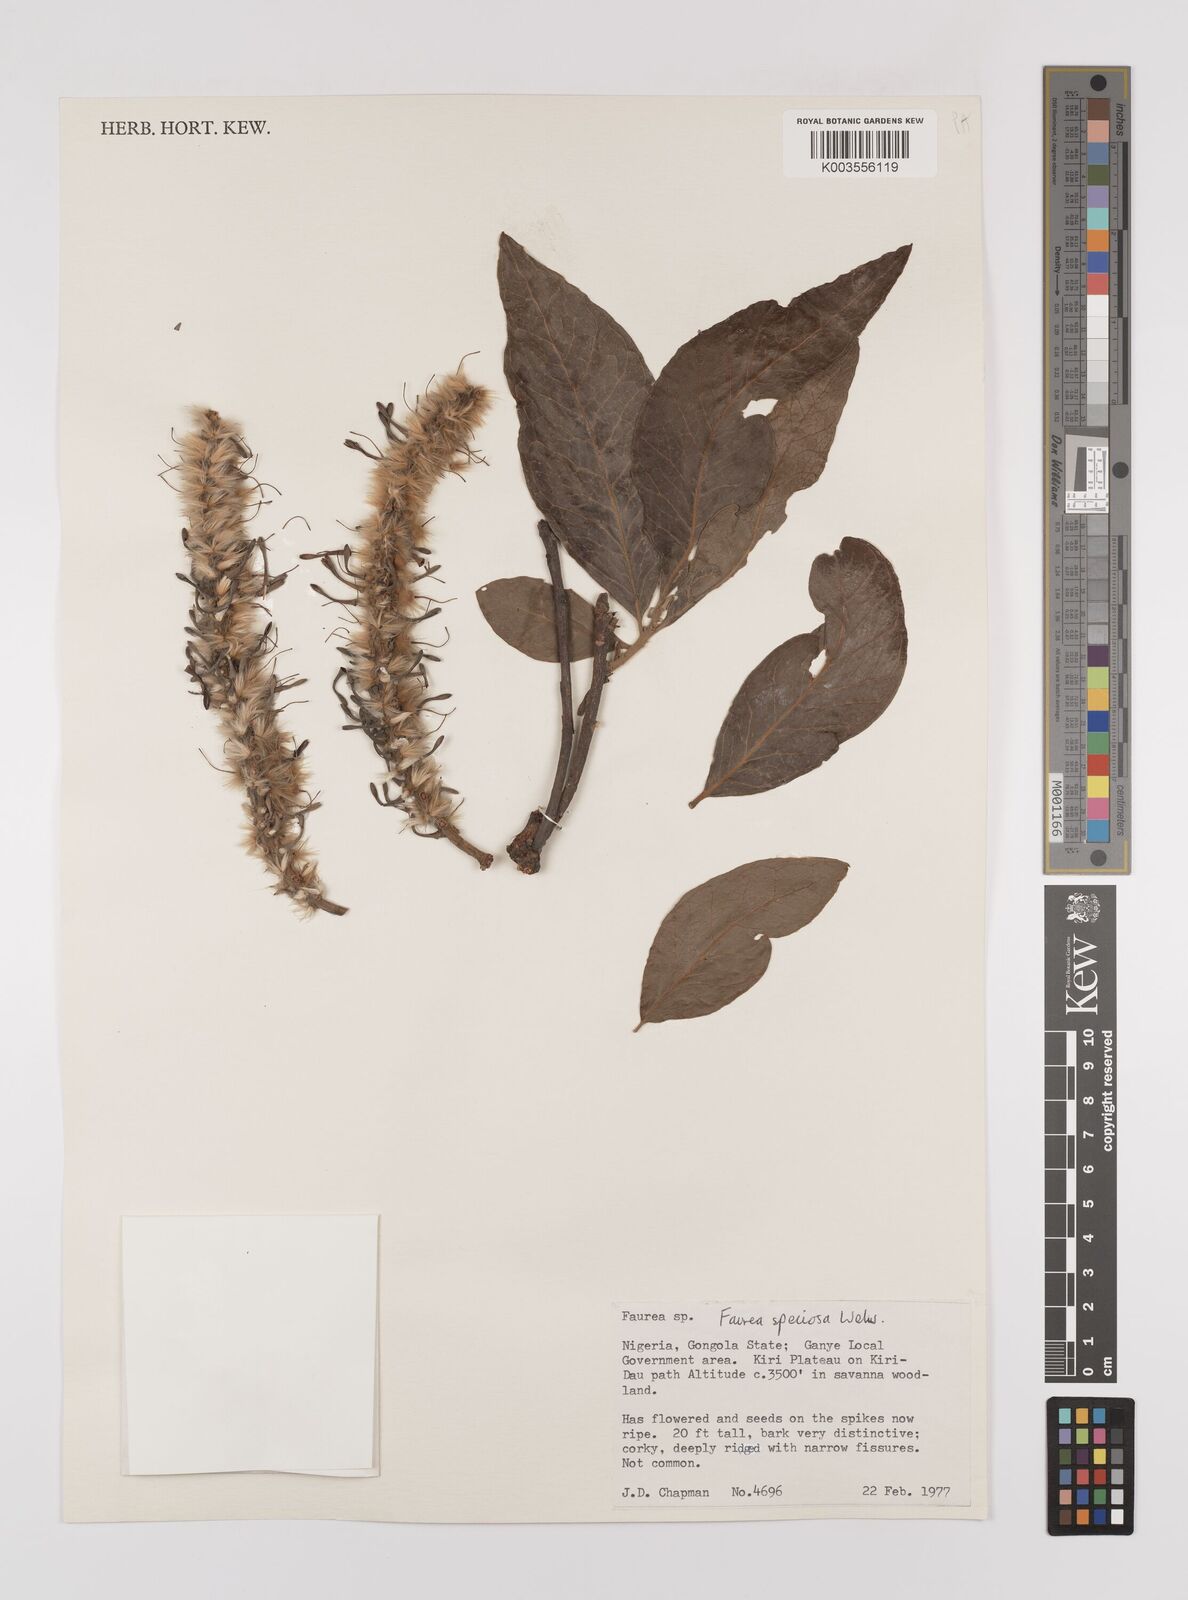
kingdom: Plantae
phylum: Tracheophyta
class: Magnoliopsida
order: Proteales
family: Proteaceae
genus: Faurea
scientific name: Faurea rochetiana
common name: Broad-leaved beech
